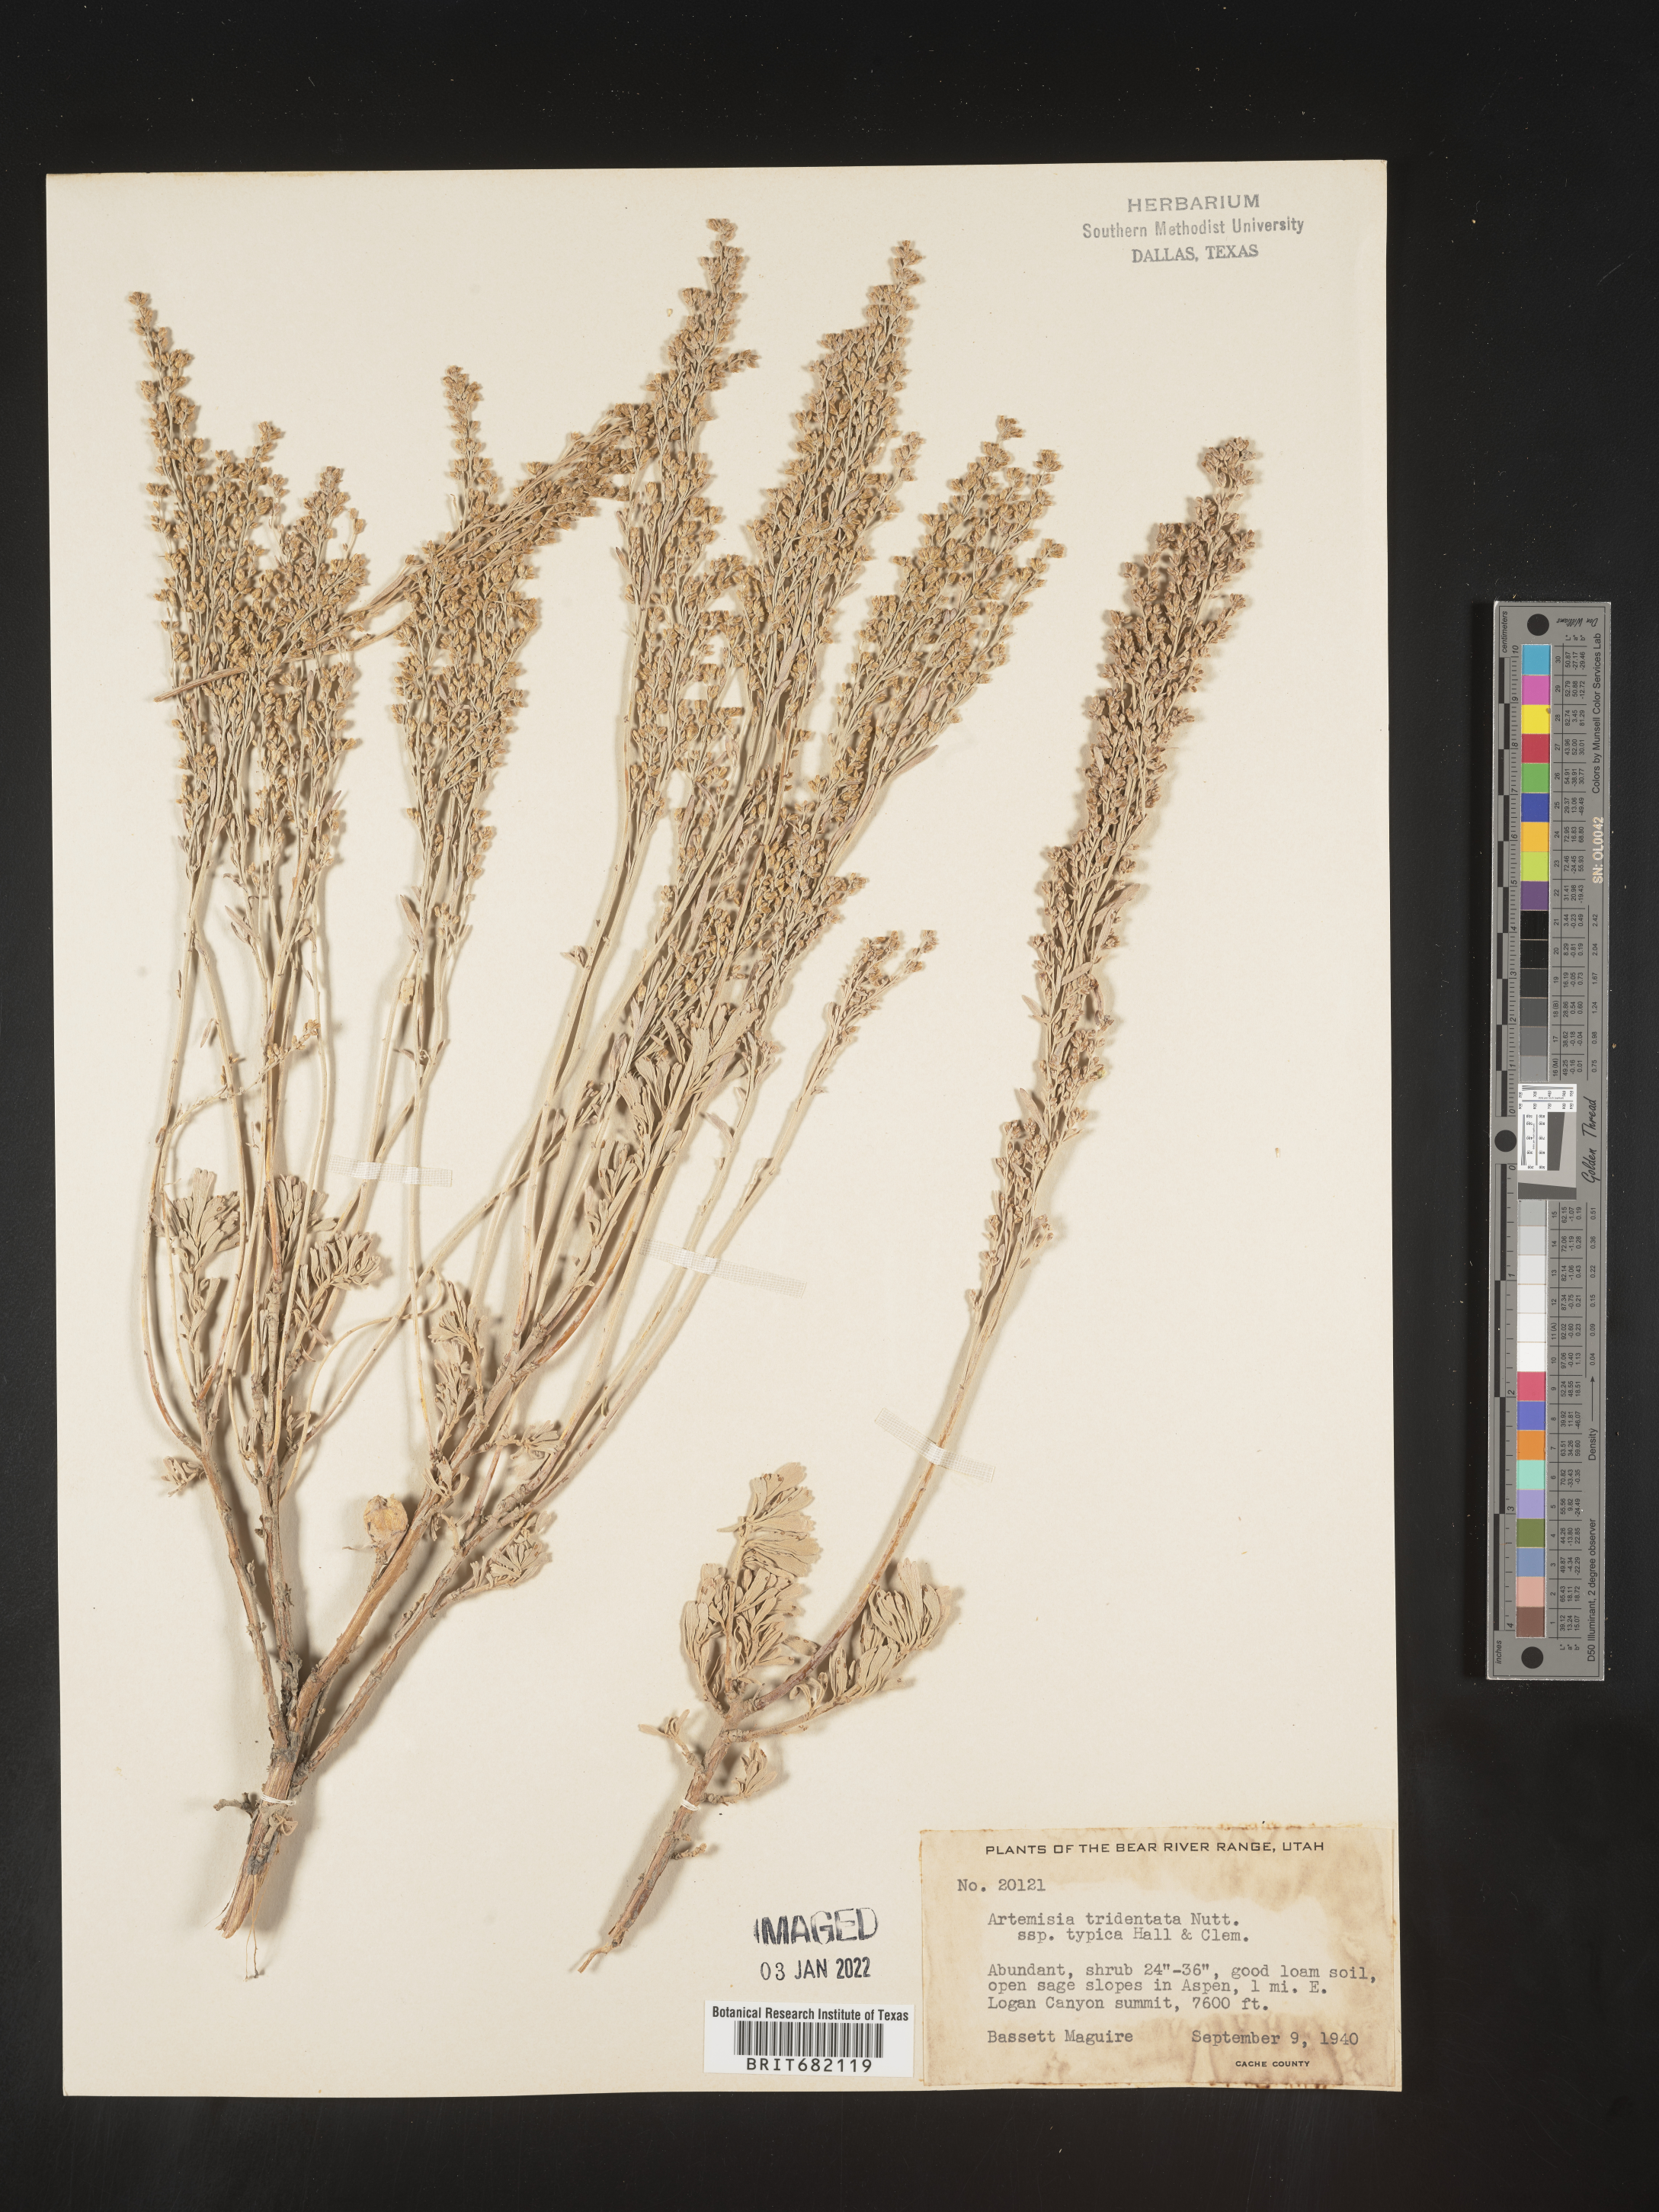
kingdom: Plantae
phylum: Tracheophyta
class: Magnoliopsida
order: Asterales
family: Asteraceae
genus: Artemisia
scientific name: Artemisia tridentata
